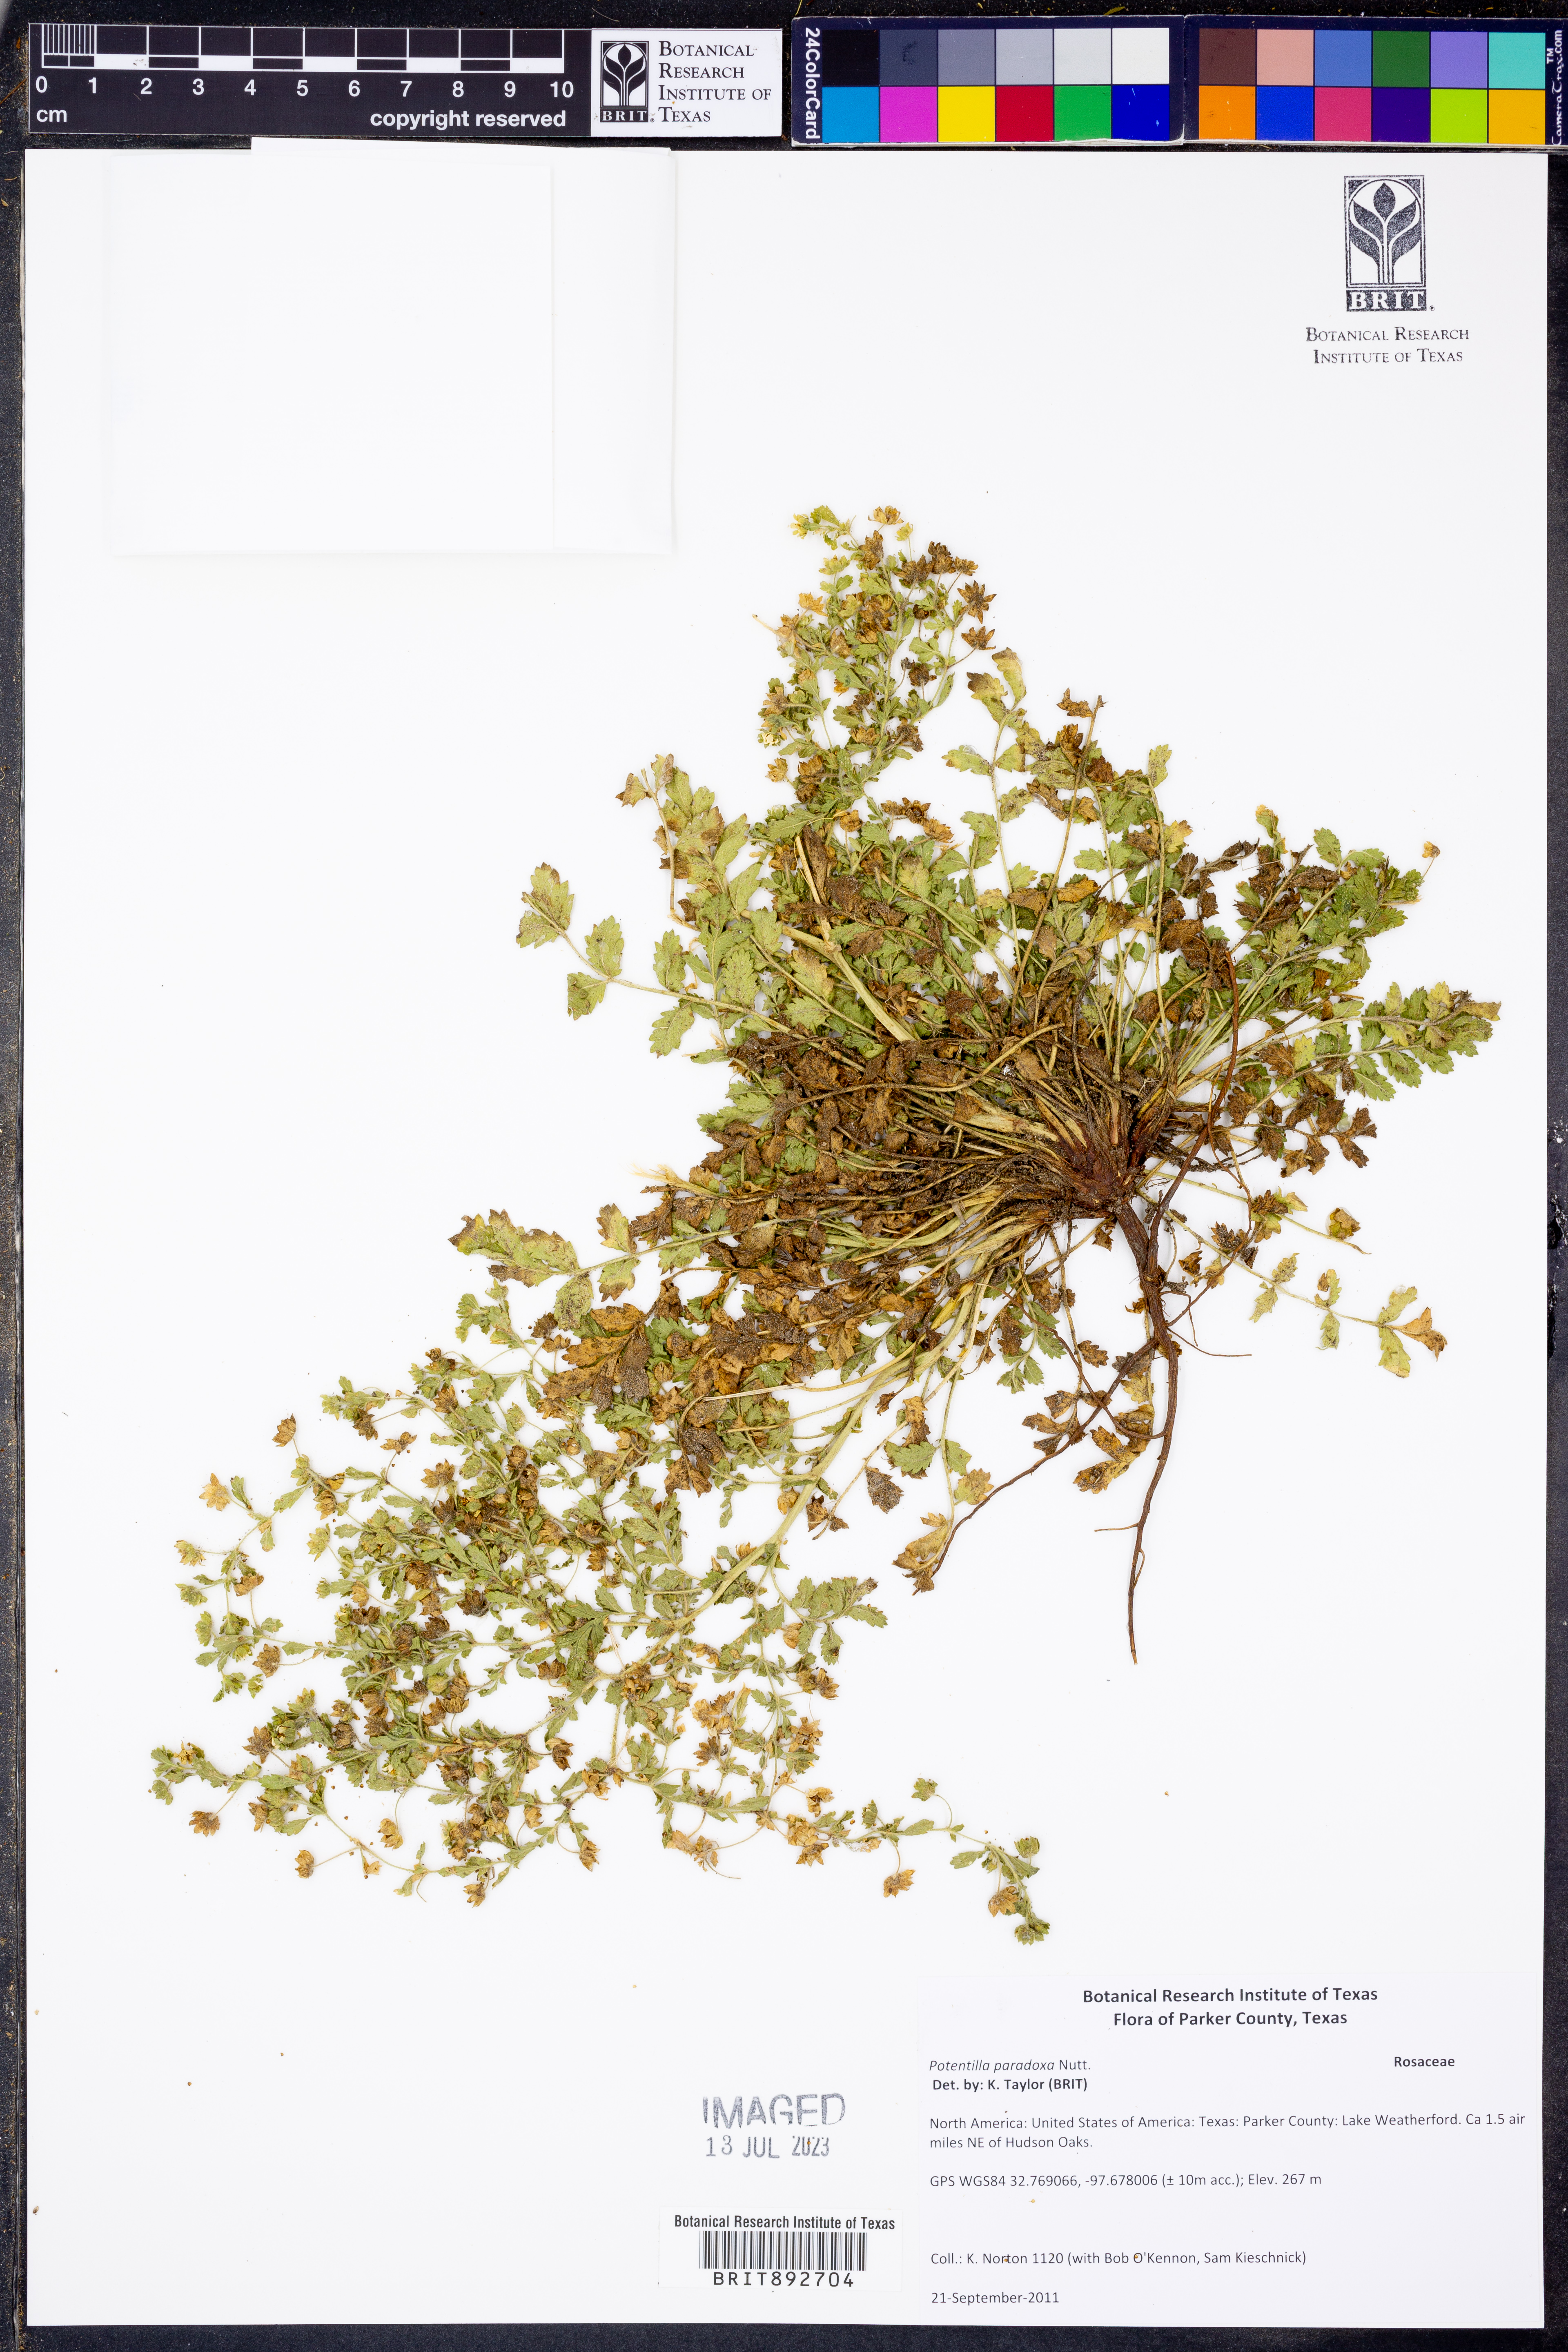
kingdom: Plantae
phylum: Tracheophyta
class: Magnoliopsida
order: Rosales
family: Rosaceae
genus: Potentilla
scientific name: Potentilla supina
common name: Prostrate cinquefoil
